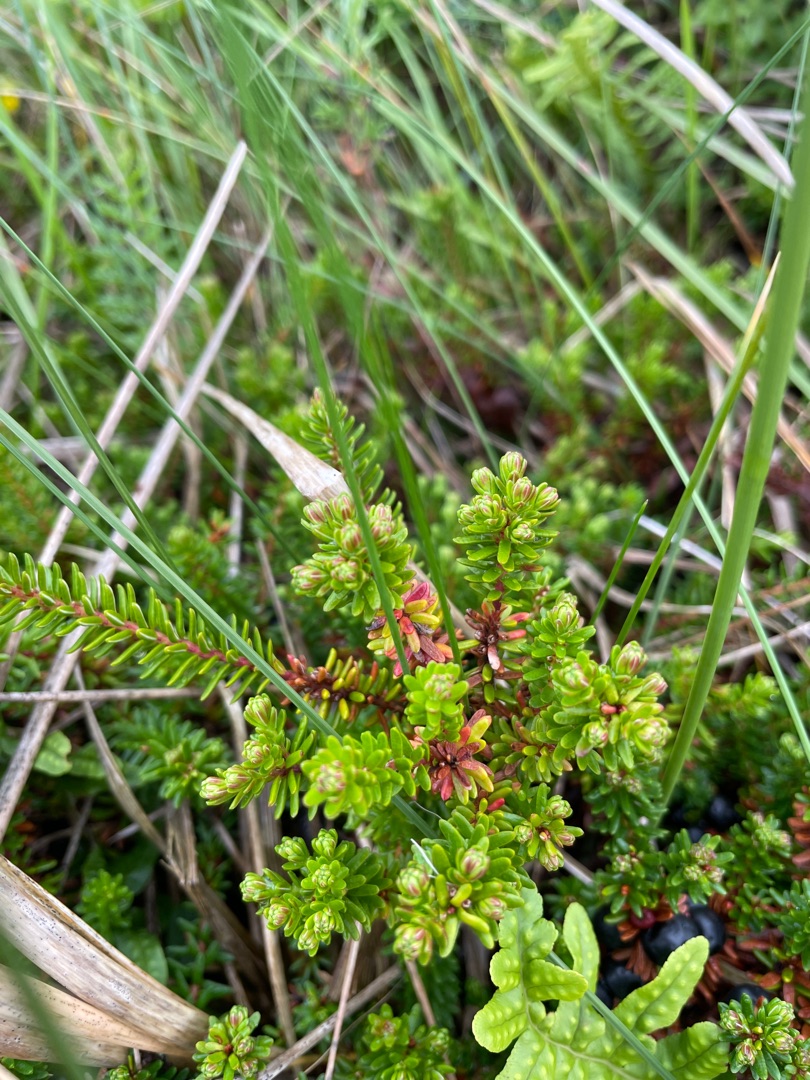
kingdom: Plantae
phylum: Tracheophyta
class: Magnoliopsida
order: Ericales
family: Ericaceae
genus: Empetrum
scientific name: Empetrum nigrum
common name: Revling
